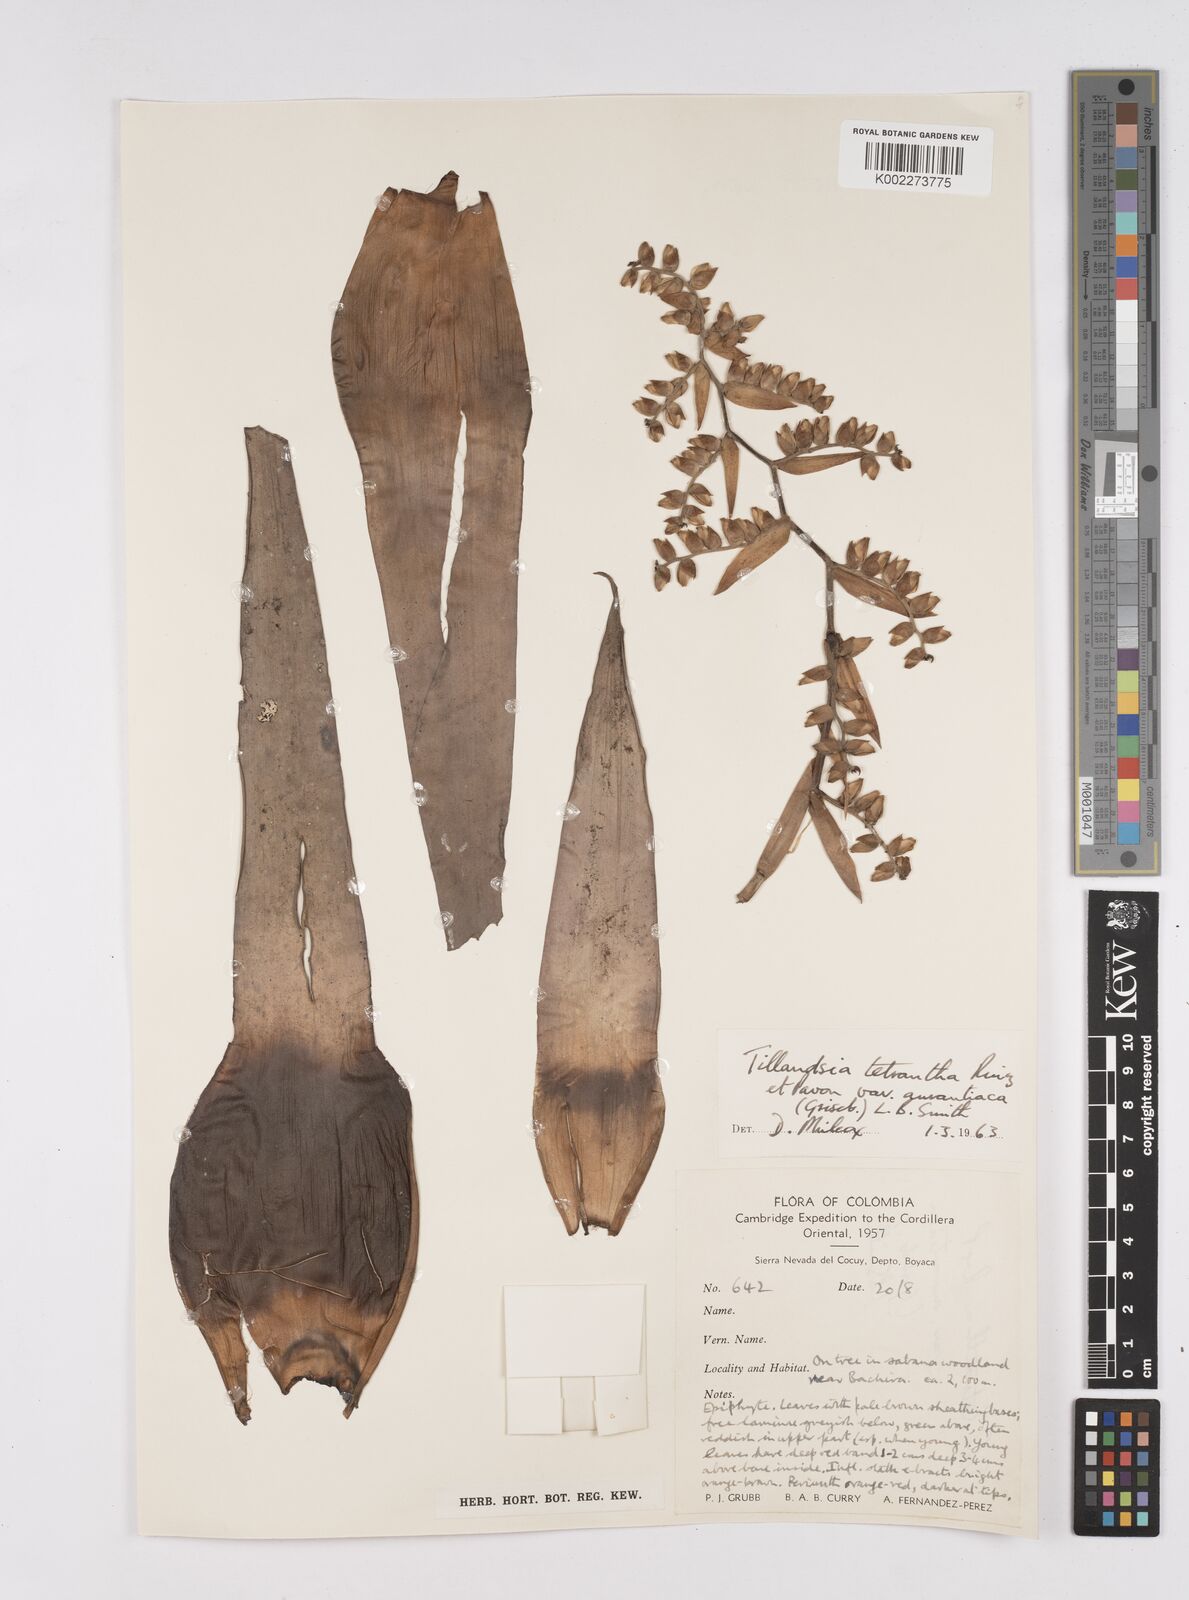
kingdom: Plantae
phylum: Tracheophyta
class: Liliopsida
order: Poales
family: Bromeliaceae
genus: Racinaea
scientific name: Racinaea tetrantha
